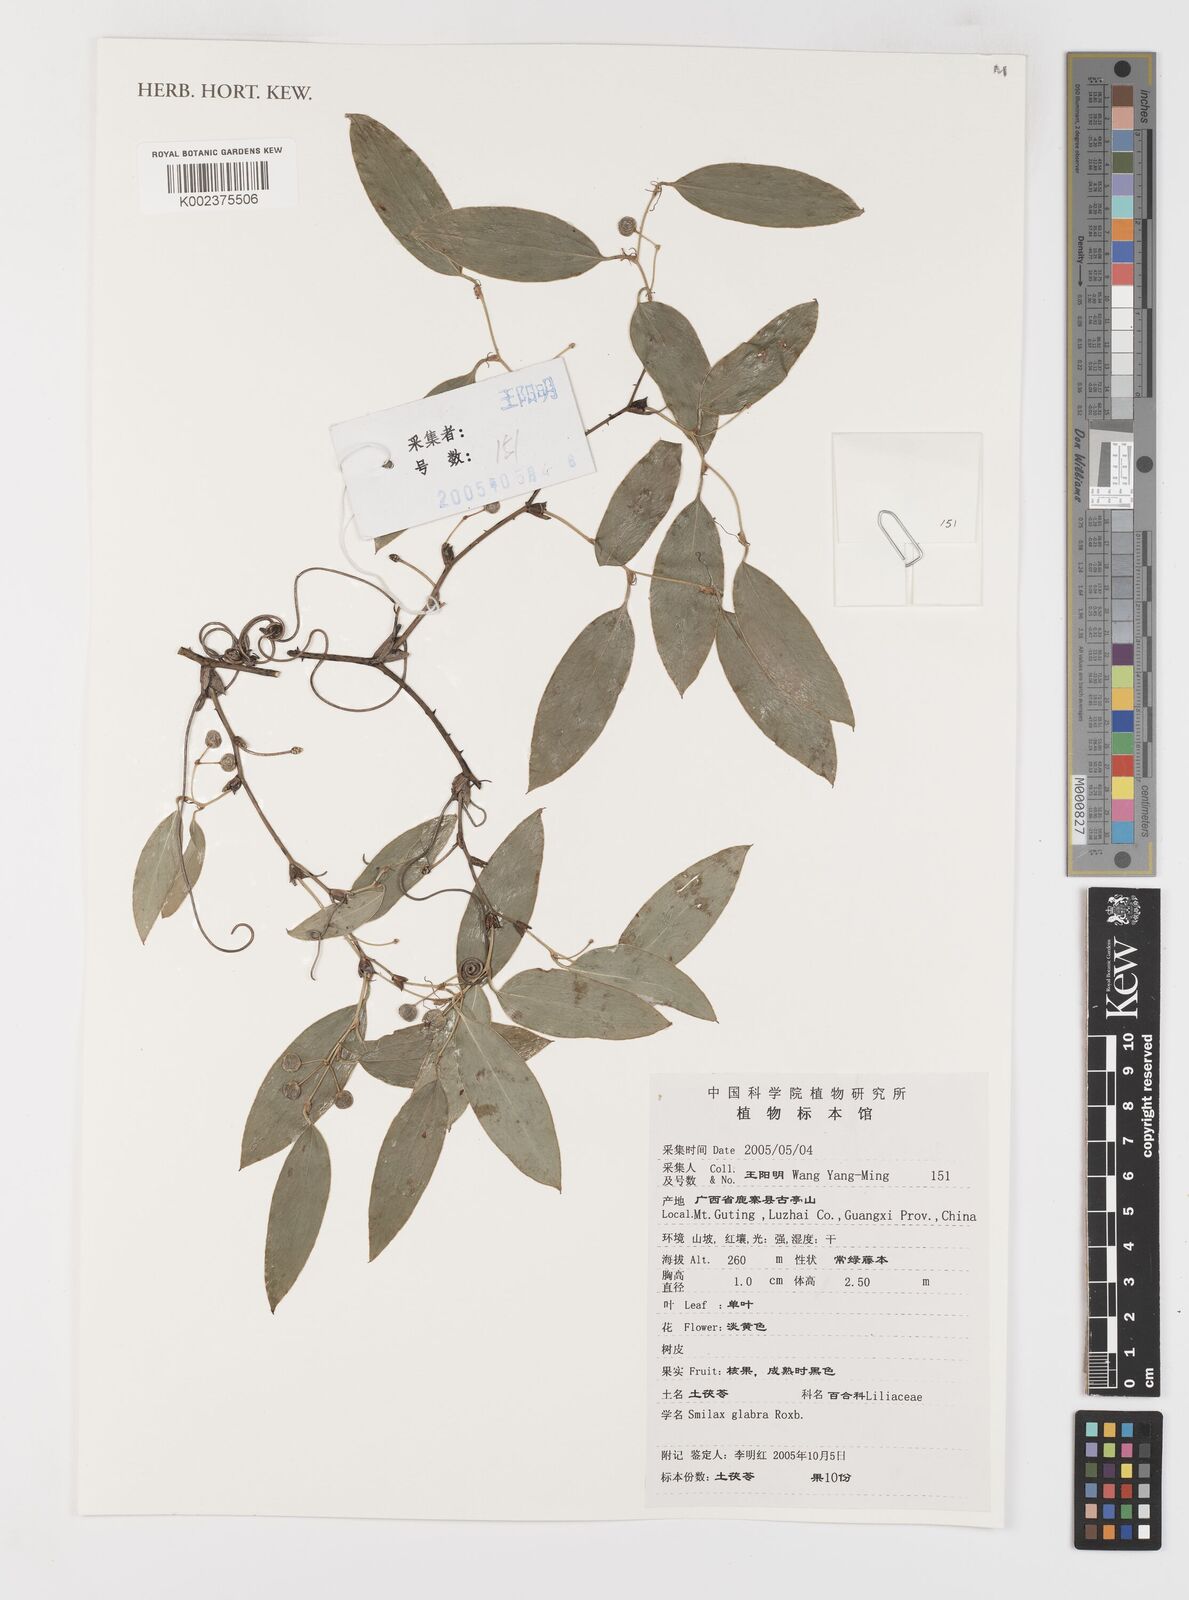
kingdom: Plantae
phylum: Tracheophyta
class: Liliopsida
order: Liliales
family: Smilacaceae
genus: Smilax
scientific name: Smilax glabra
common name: Chinese smilax
